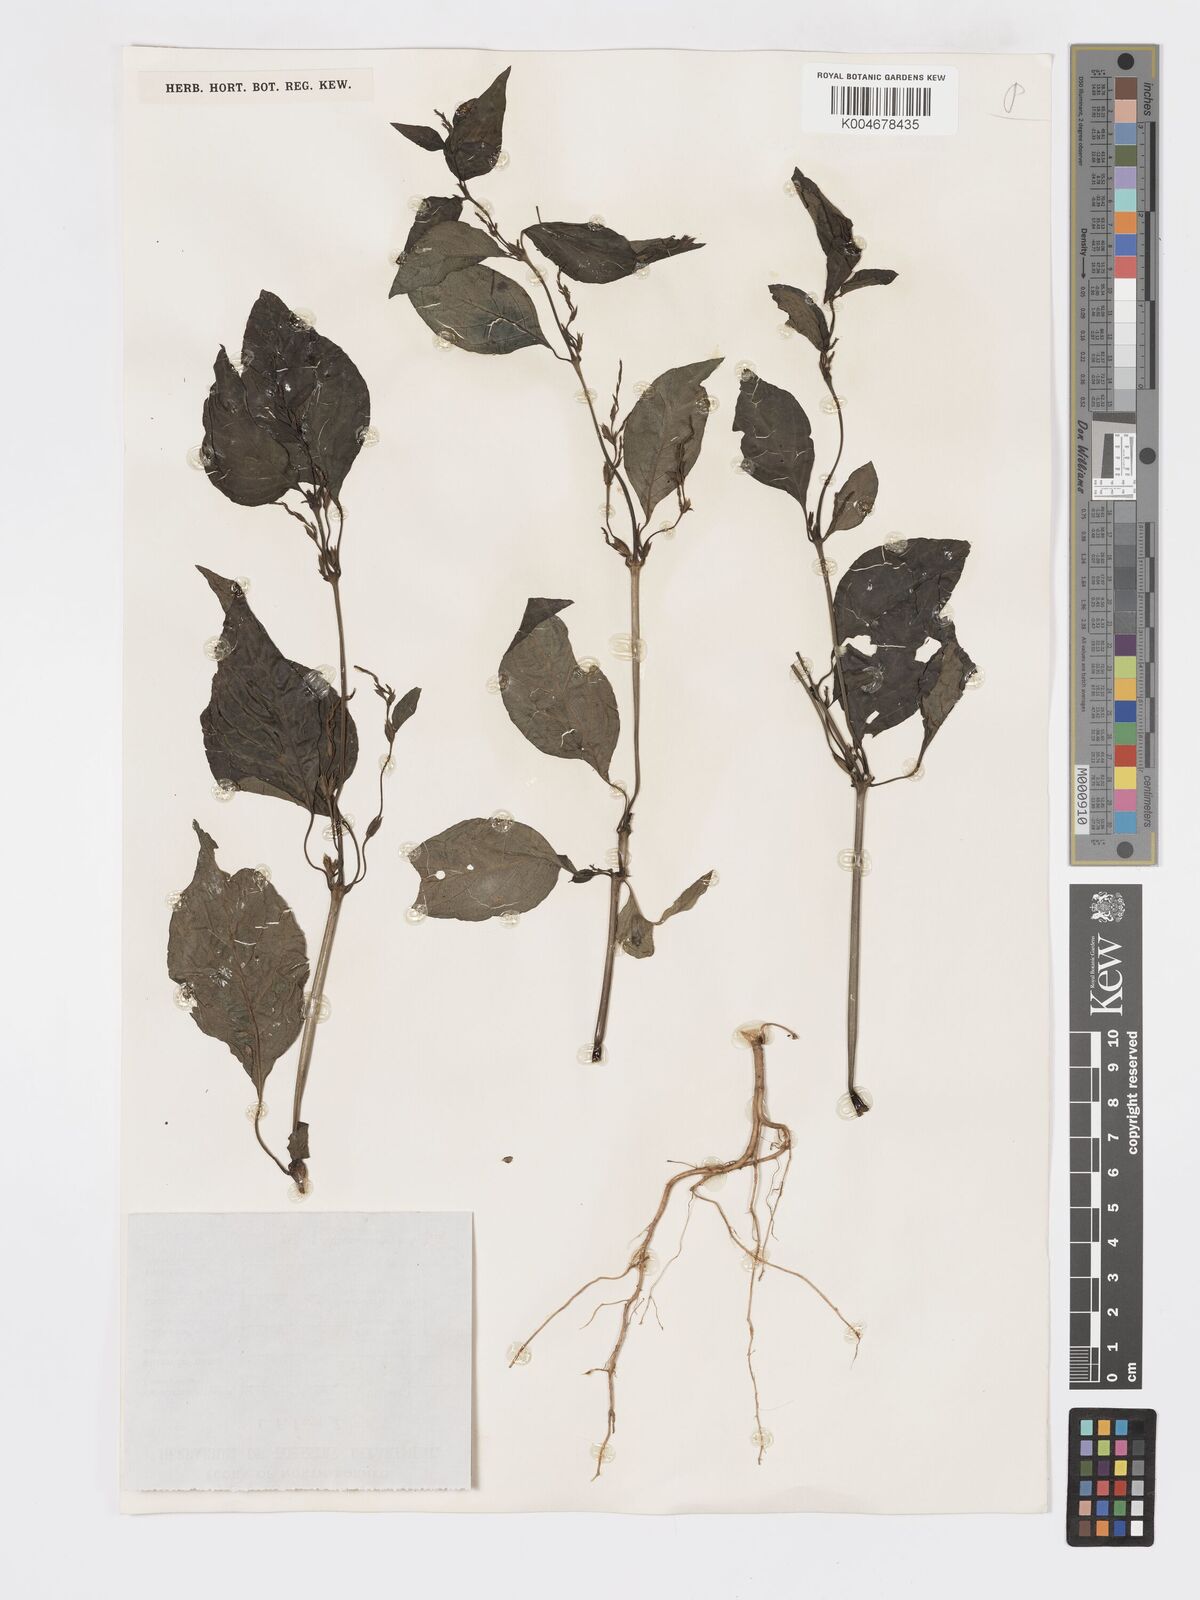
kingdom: Plantae
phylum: Tracheophyta
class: Magnoliopsida
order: Lamiales
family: Acanthaceae
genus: Hypoestes
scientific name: Hypoestes
